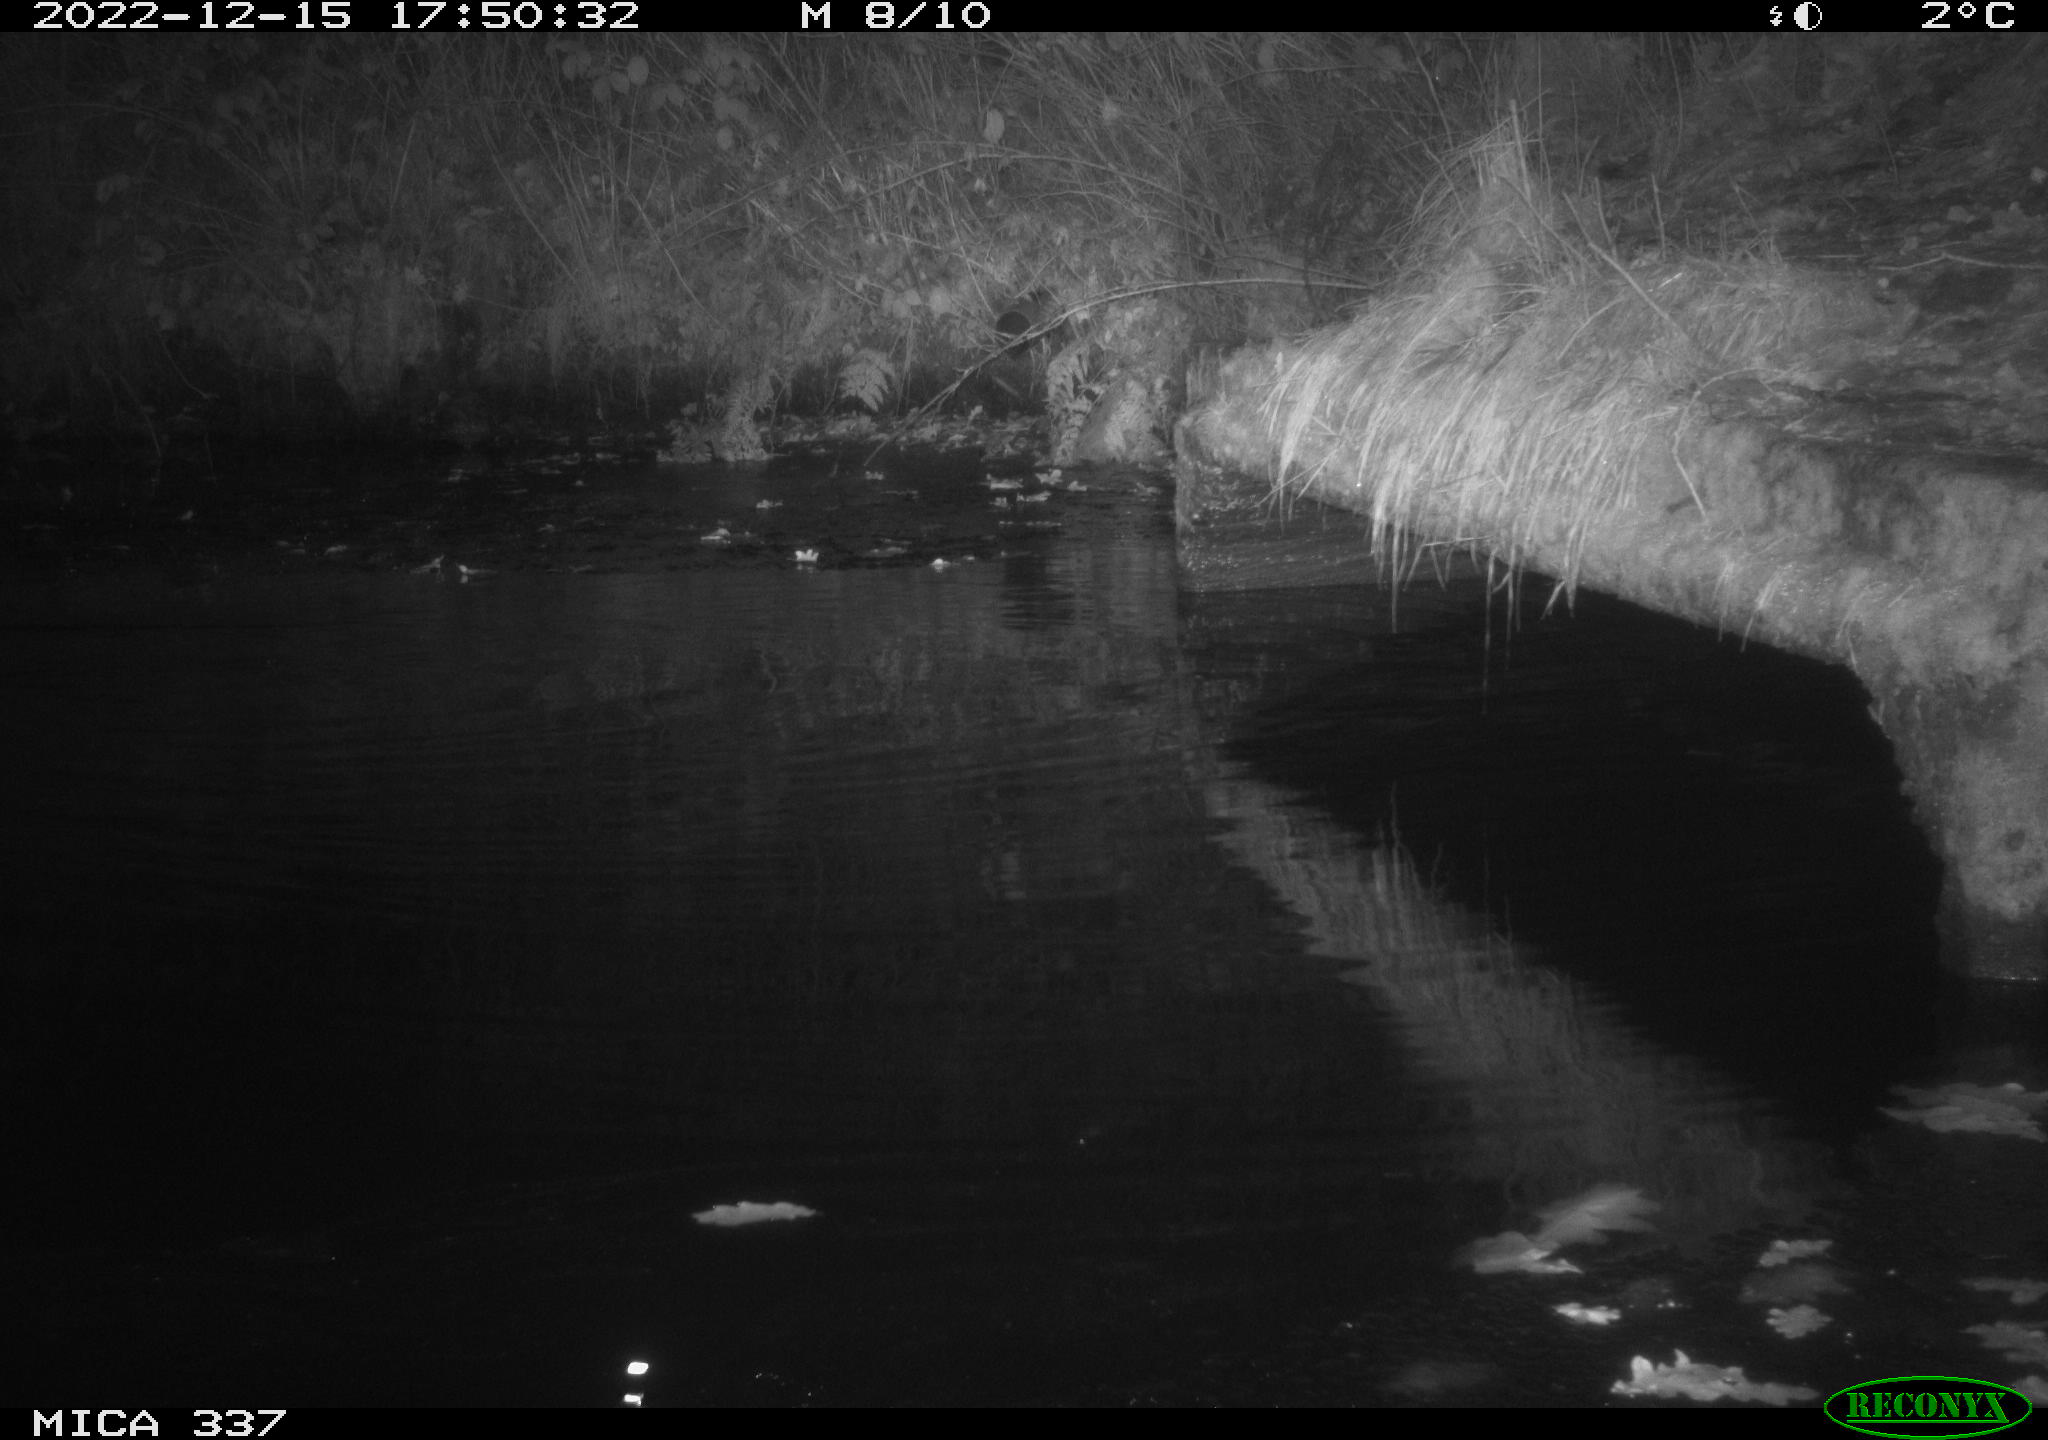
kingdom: Animalia
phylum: Chordata
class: Aves
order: Anseriformes
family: Anatidae
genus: Anas
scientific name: Anas
